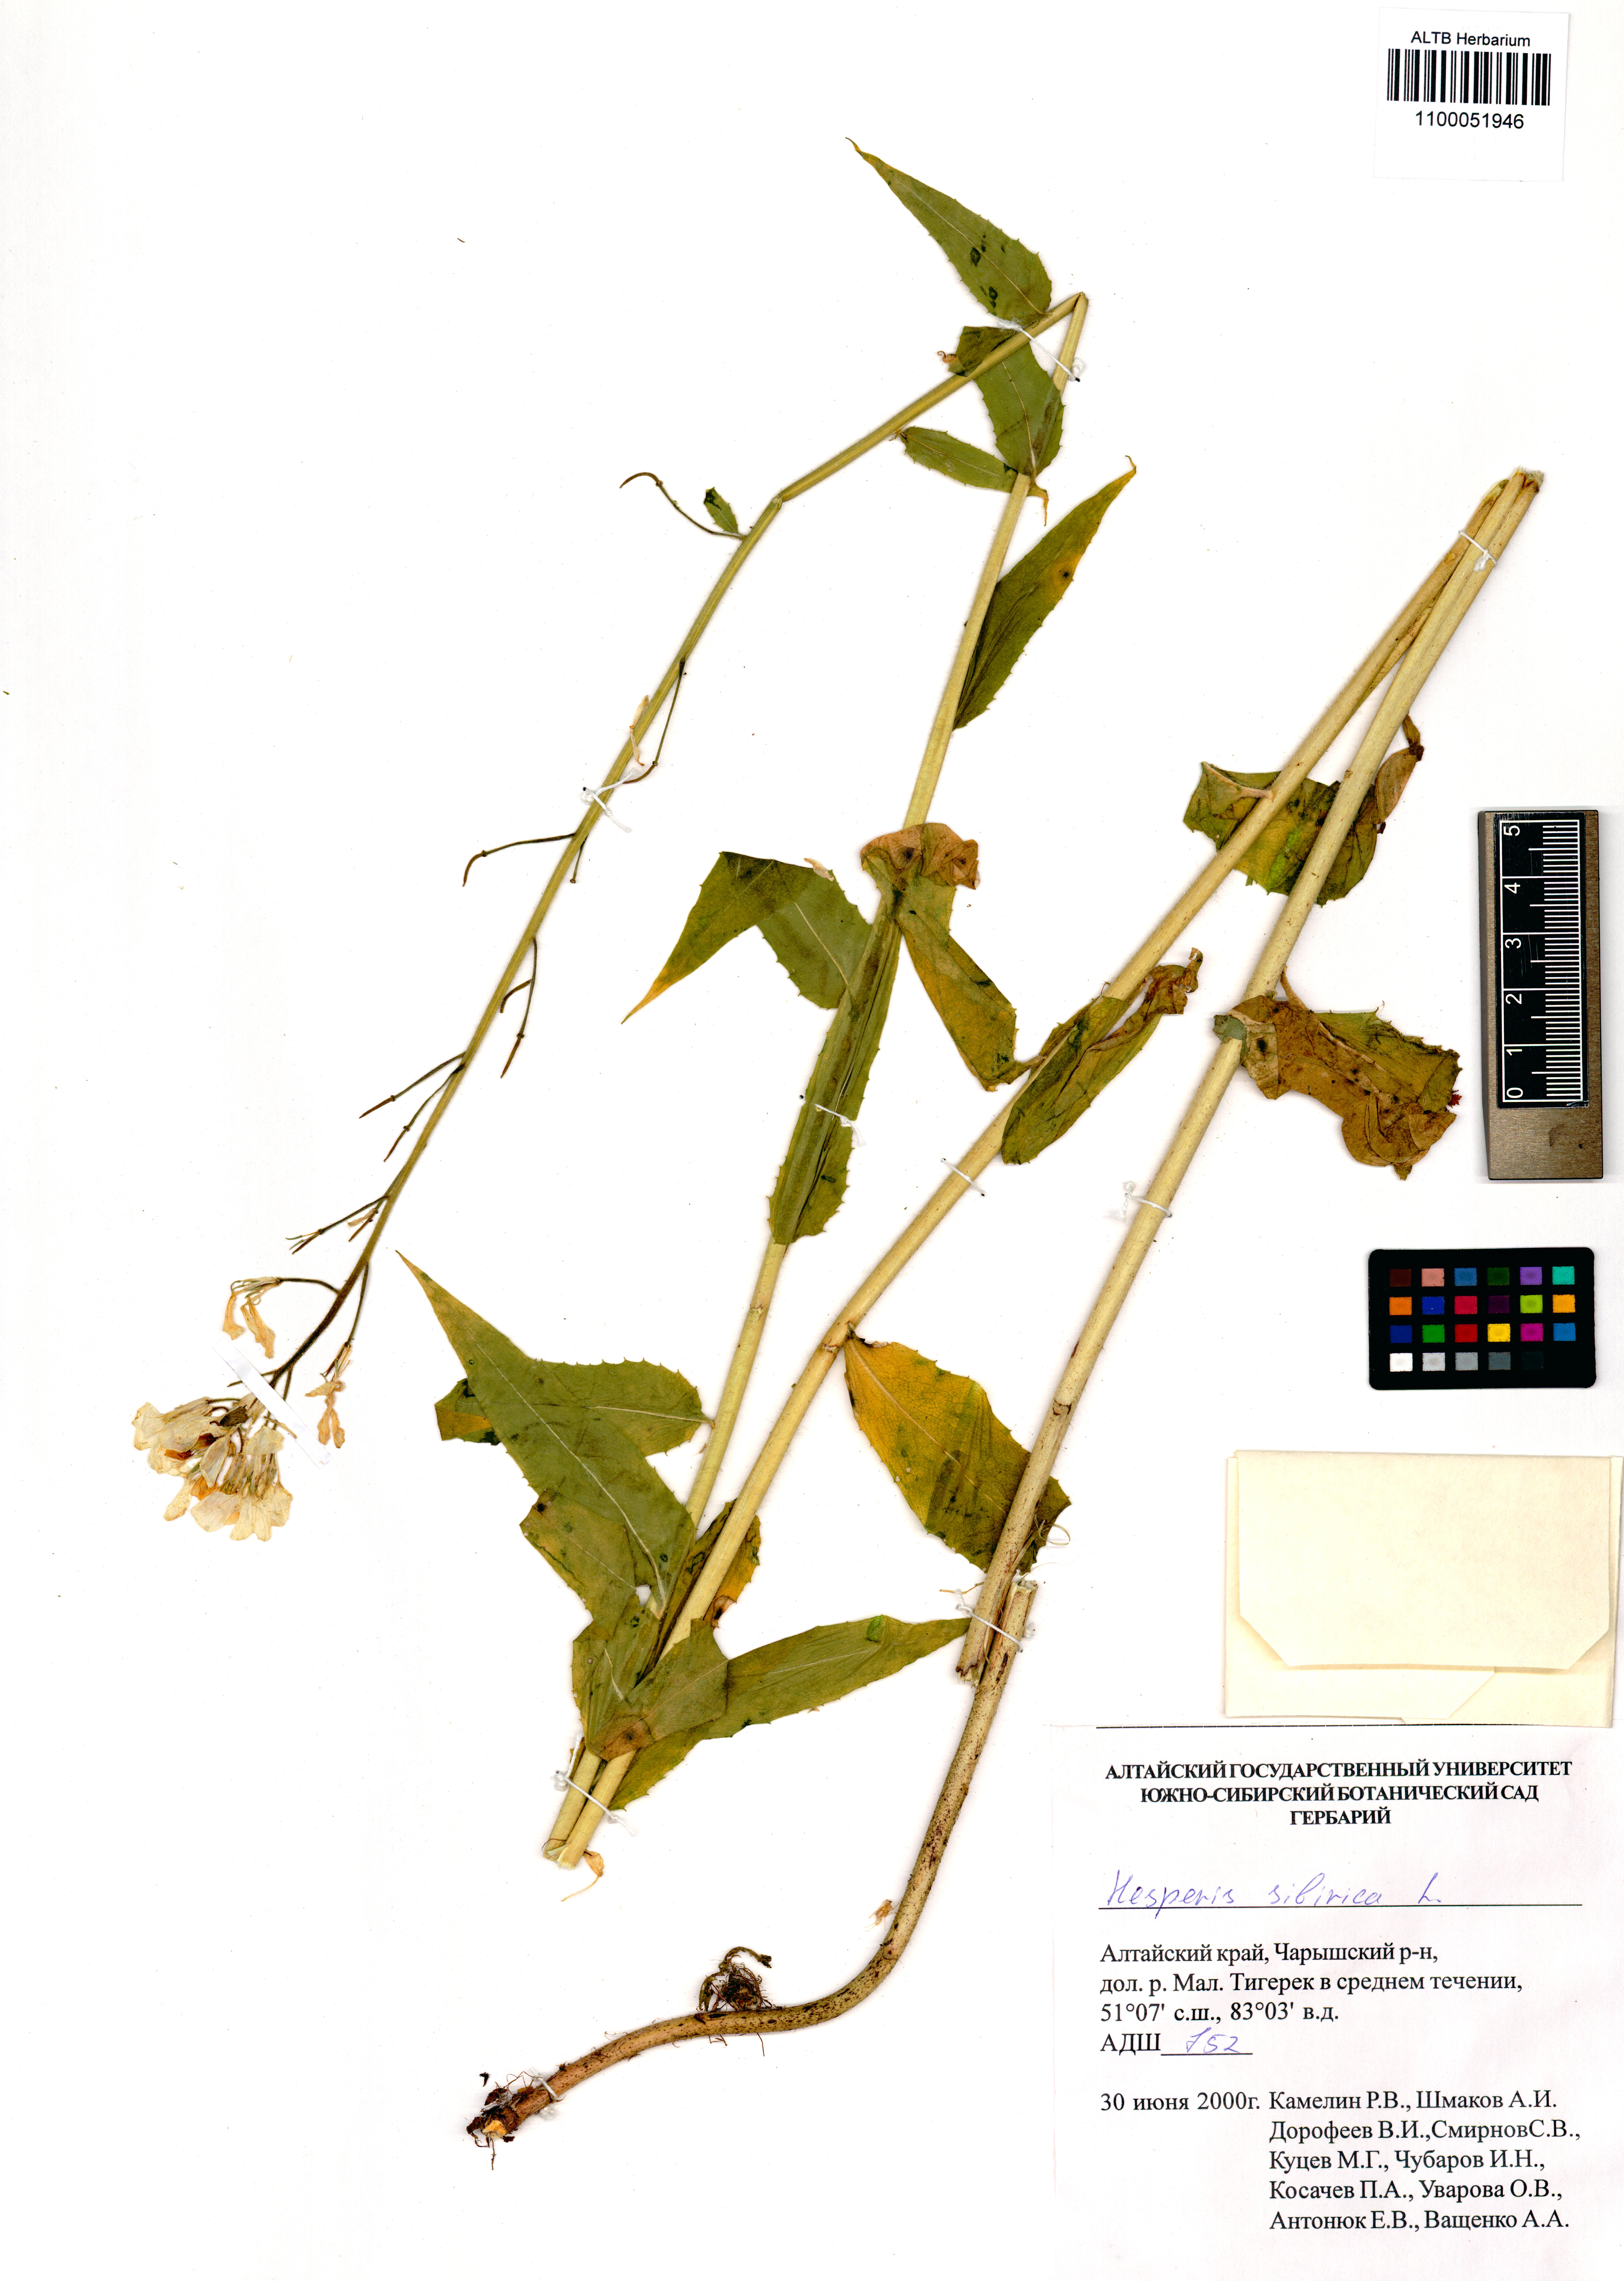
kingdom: Plantae
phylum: Tracheophyta
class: Magnoliopsida
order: Brassicales
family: Brassicaceae
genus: Hesperis
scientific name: Hesperis sibirica
